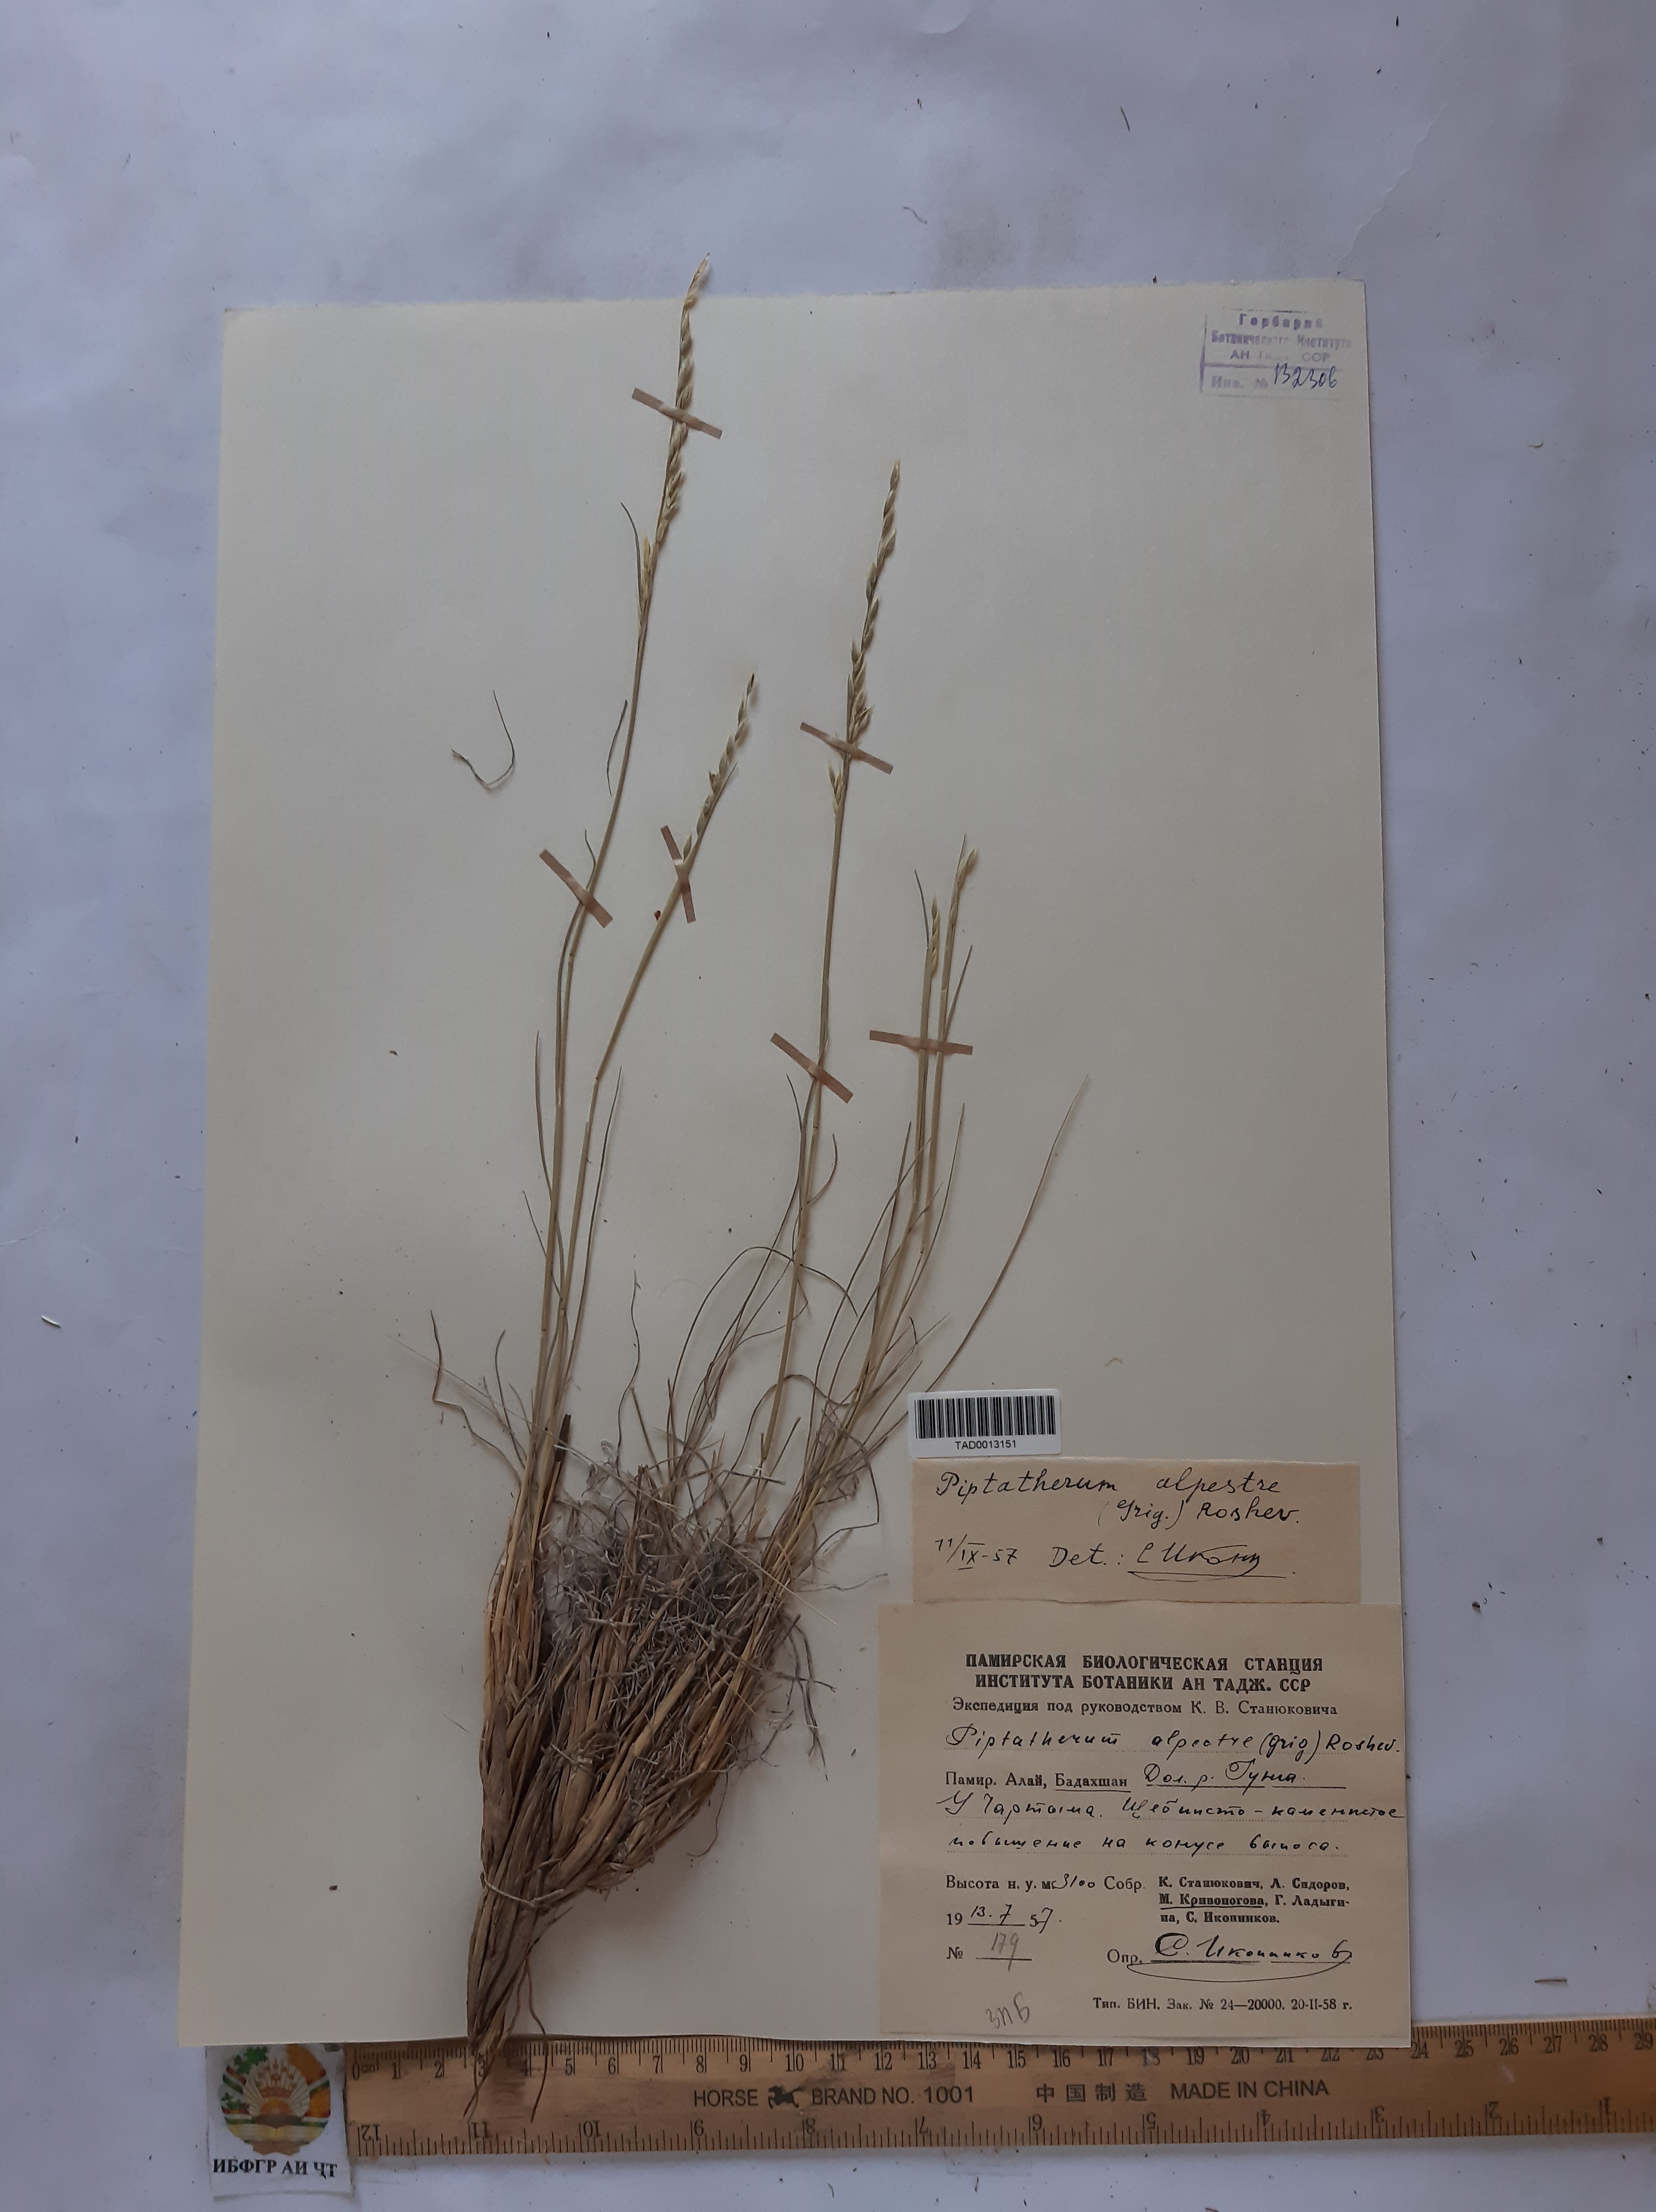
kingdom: Plantae
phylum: Tracheophyta
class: Liliopsida
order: Poales
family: Poaceae
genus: Piptatherum
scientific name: Piptatherum alpestre
